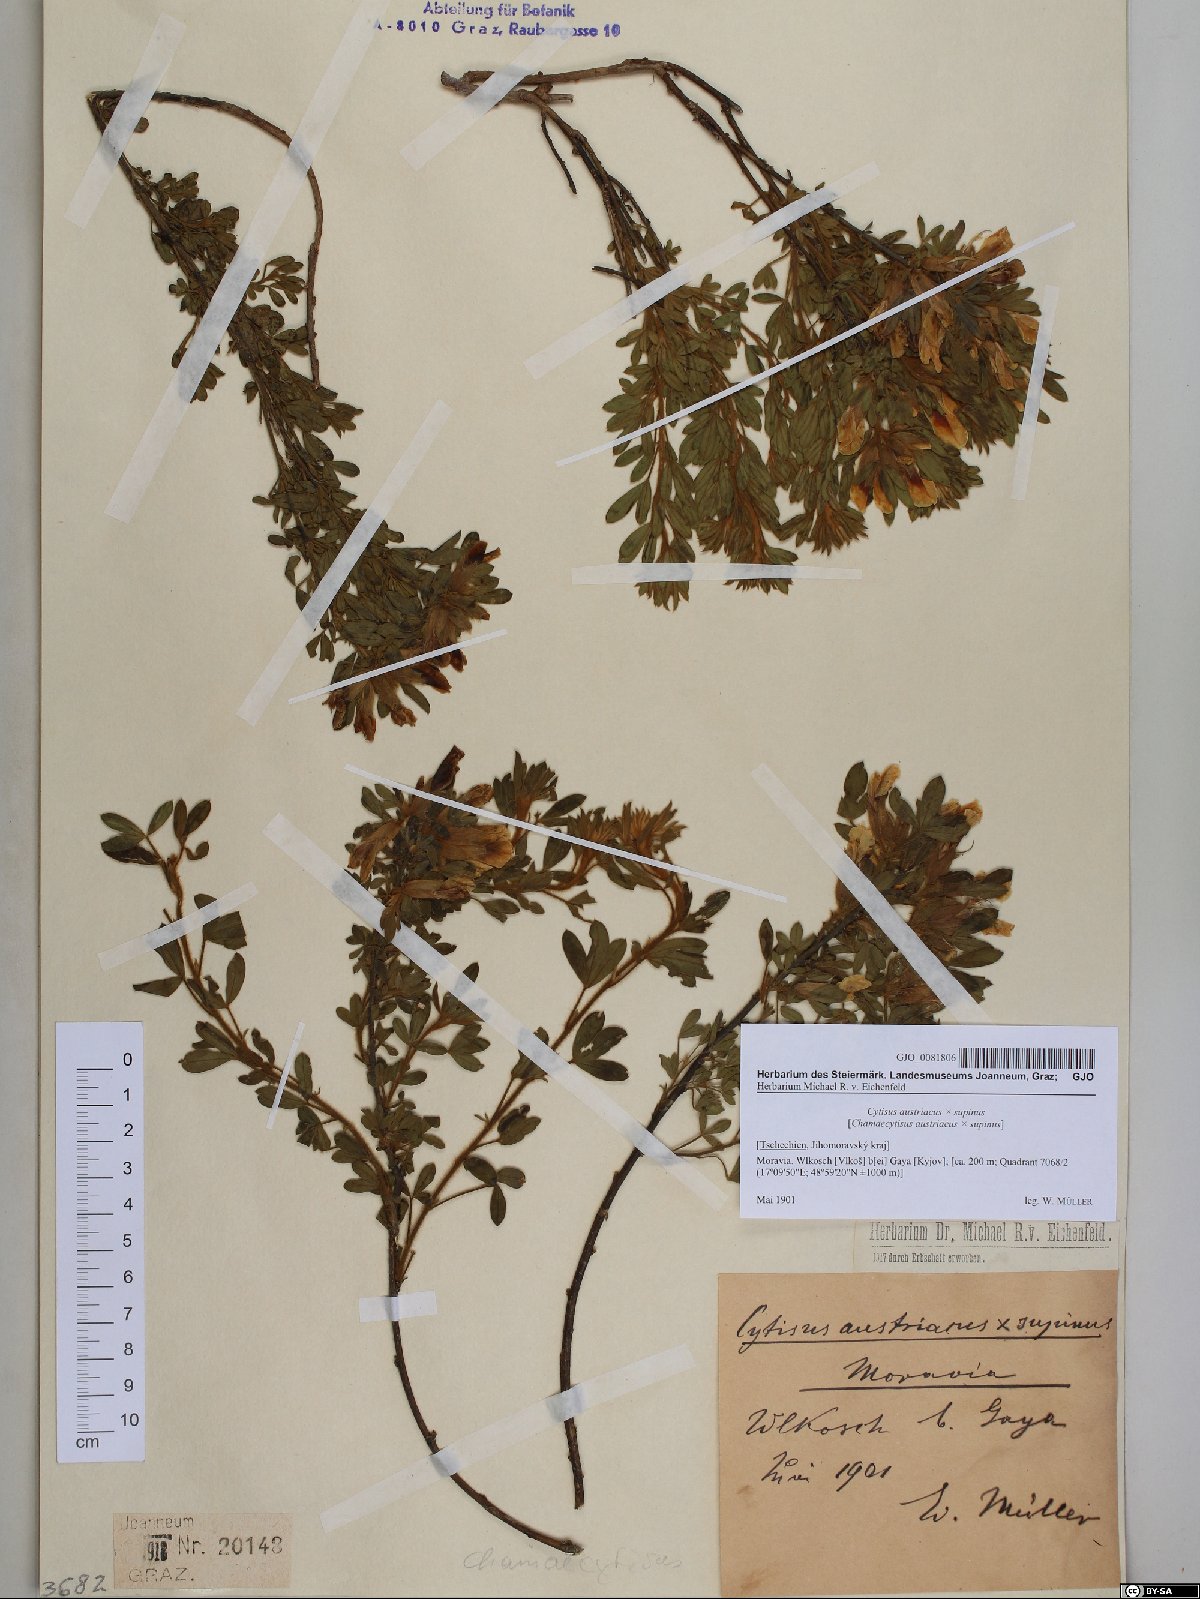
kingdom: Plantae
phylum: Tracheophyta
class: Magnoliopsida
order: Fabales
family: Fabaceae
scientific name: Fabaceae
